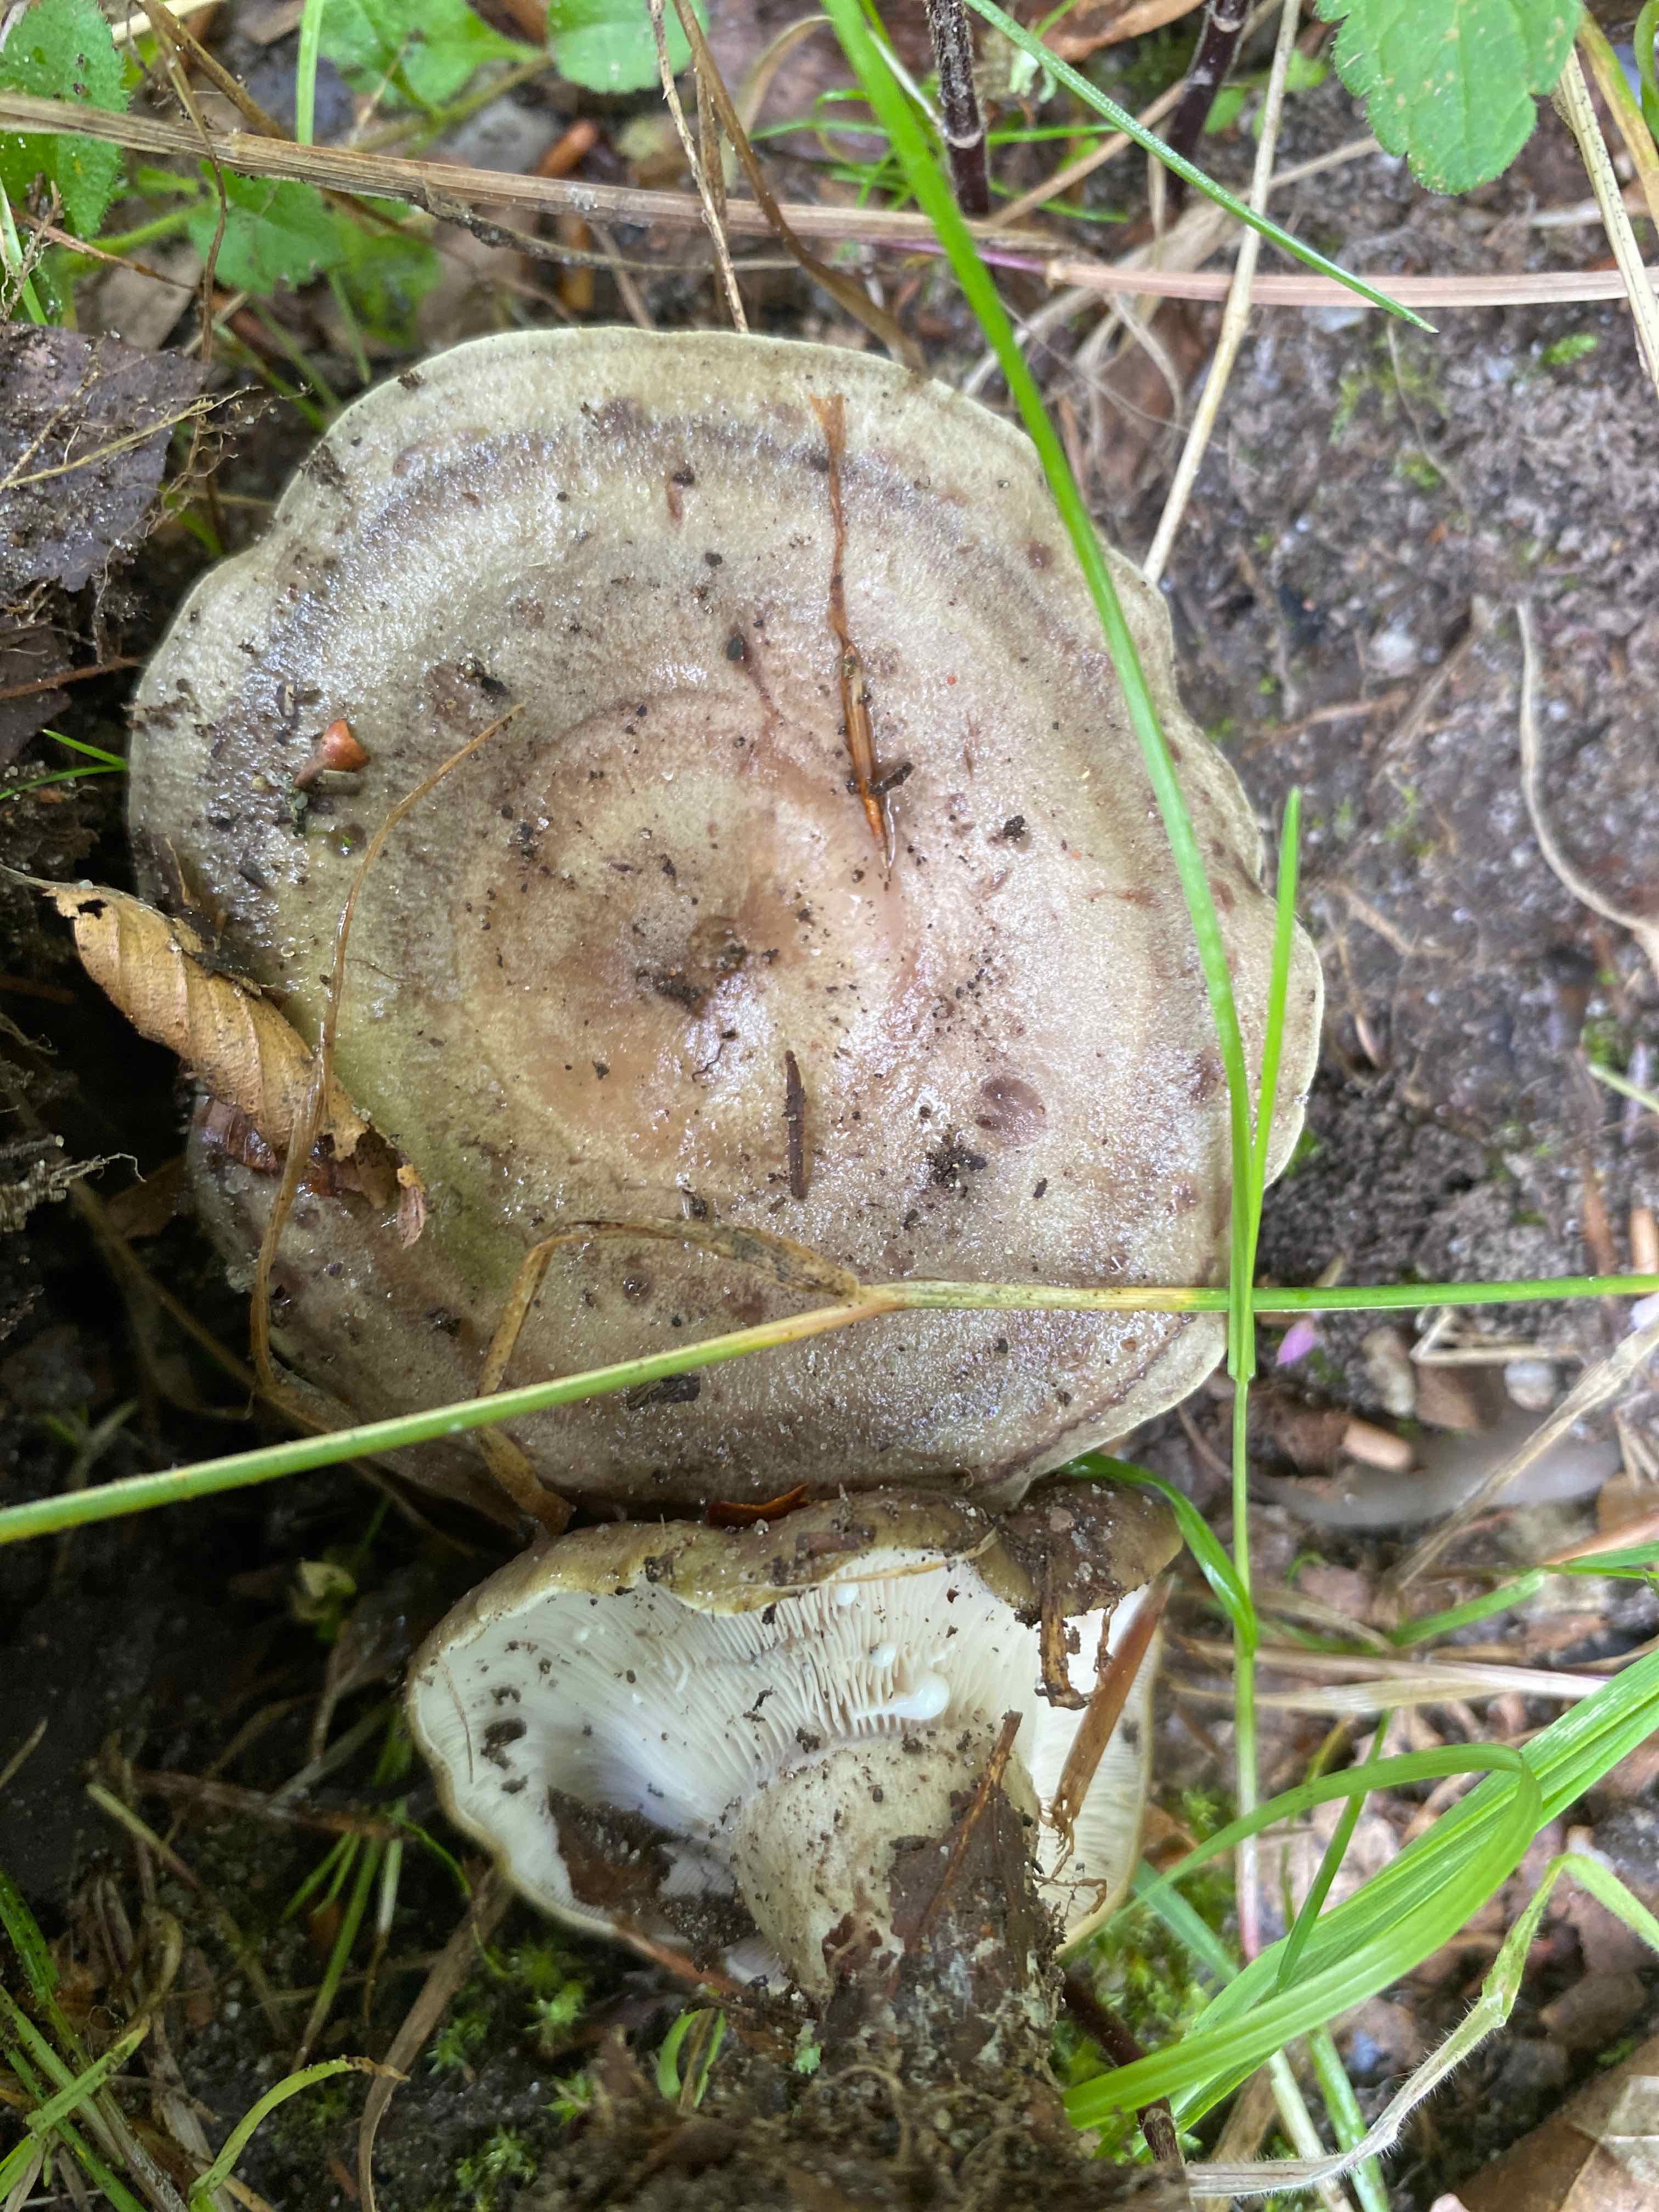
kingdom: Fungi
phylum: Basidiomycota
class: Agaricomycetes
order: Russulales
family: Russulaceae
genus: Lactarius
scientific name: Lactarius blennius
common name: dråbeplettet mælkehat
